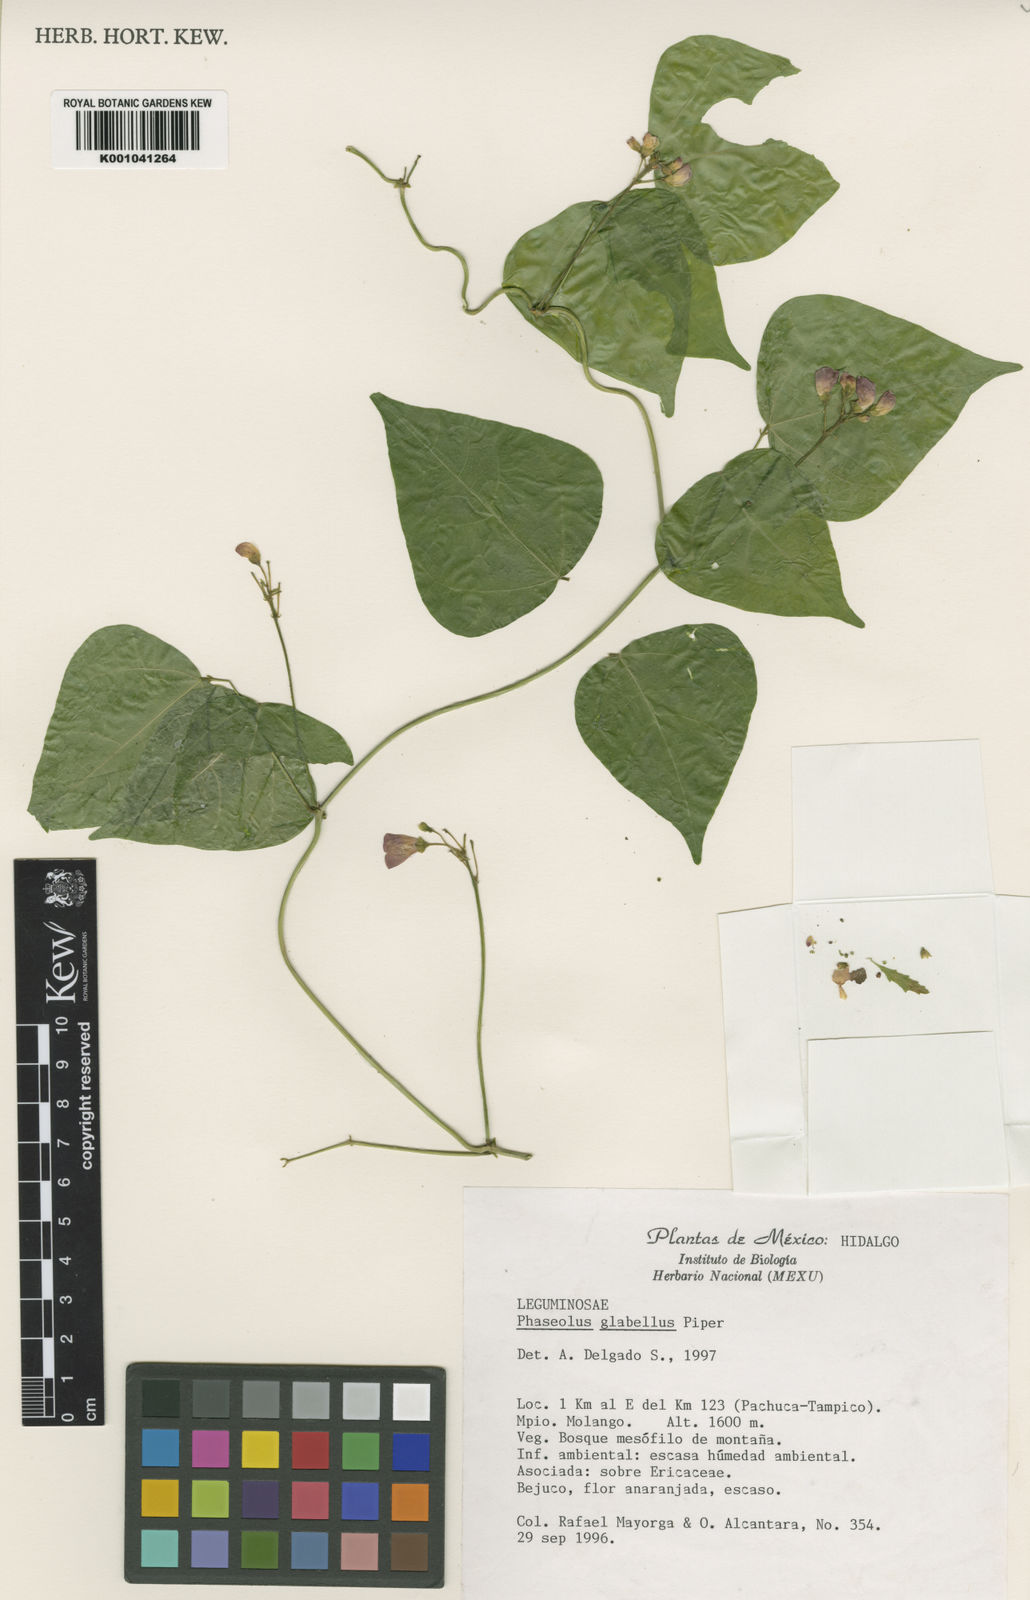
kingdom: Plantae
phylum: Tracheophyta
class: Magnoliopsida
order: Fabales
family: Fabaceae
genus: Phaseolus
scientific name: Phaseolus glabellus
